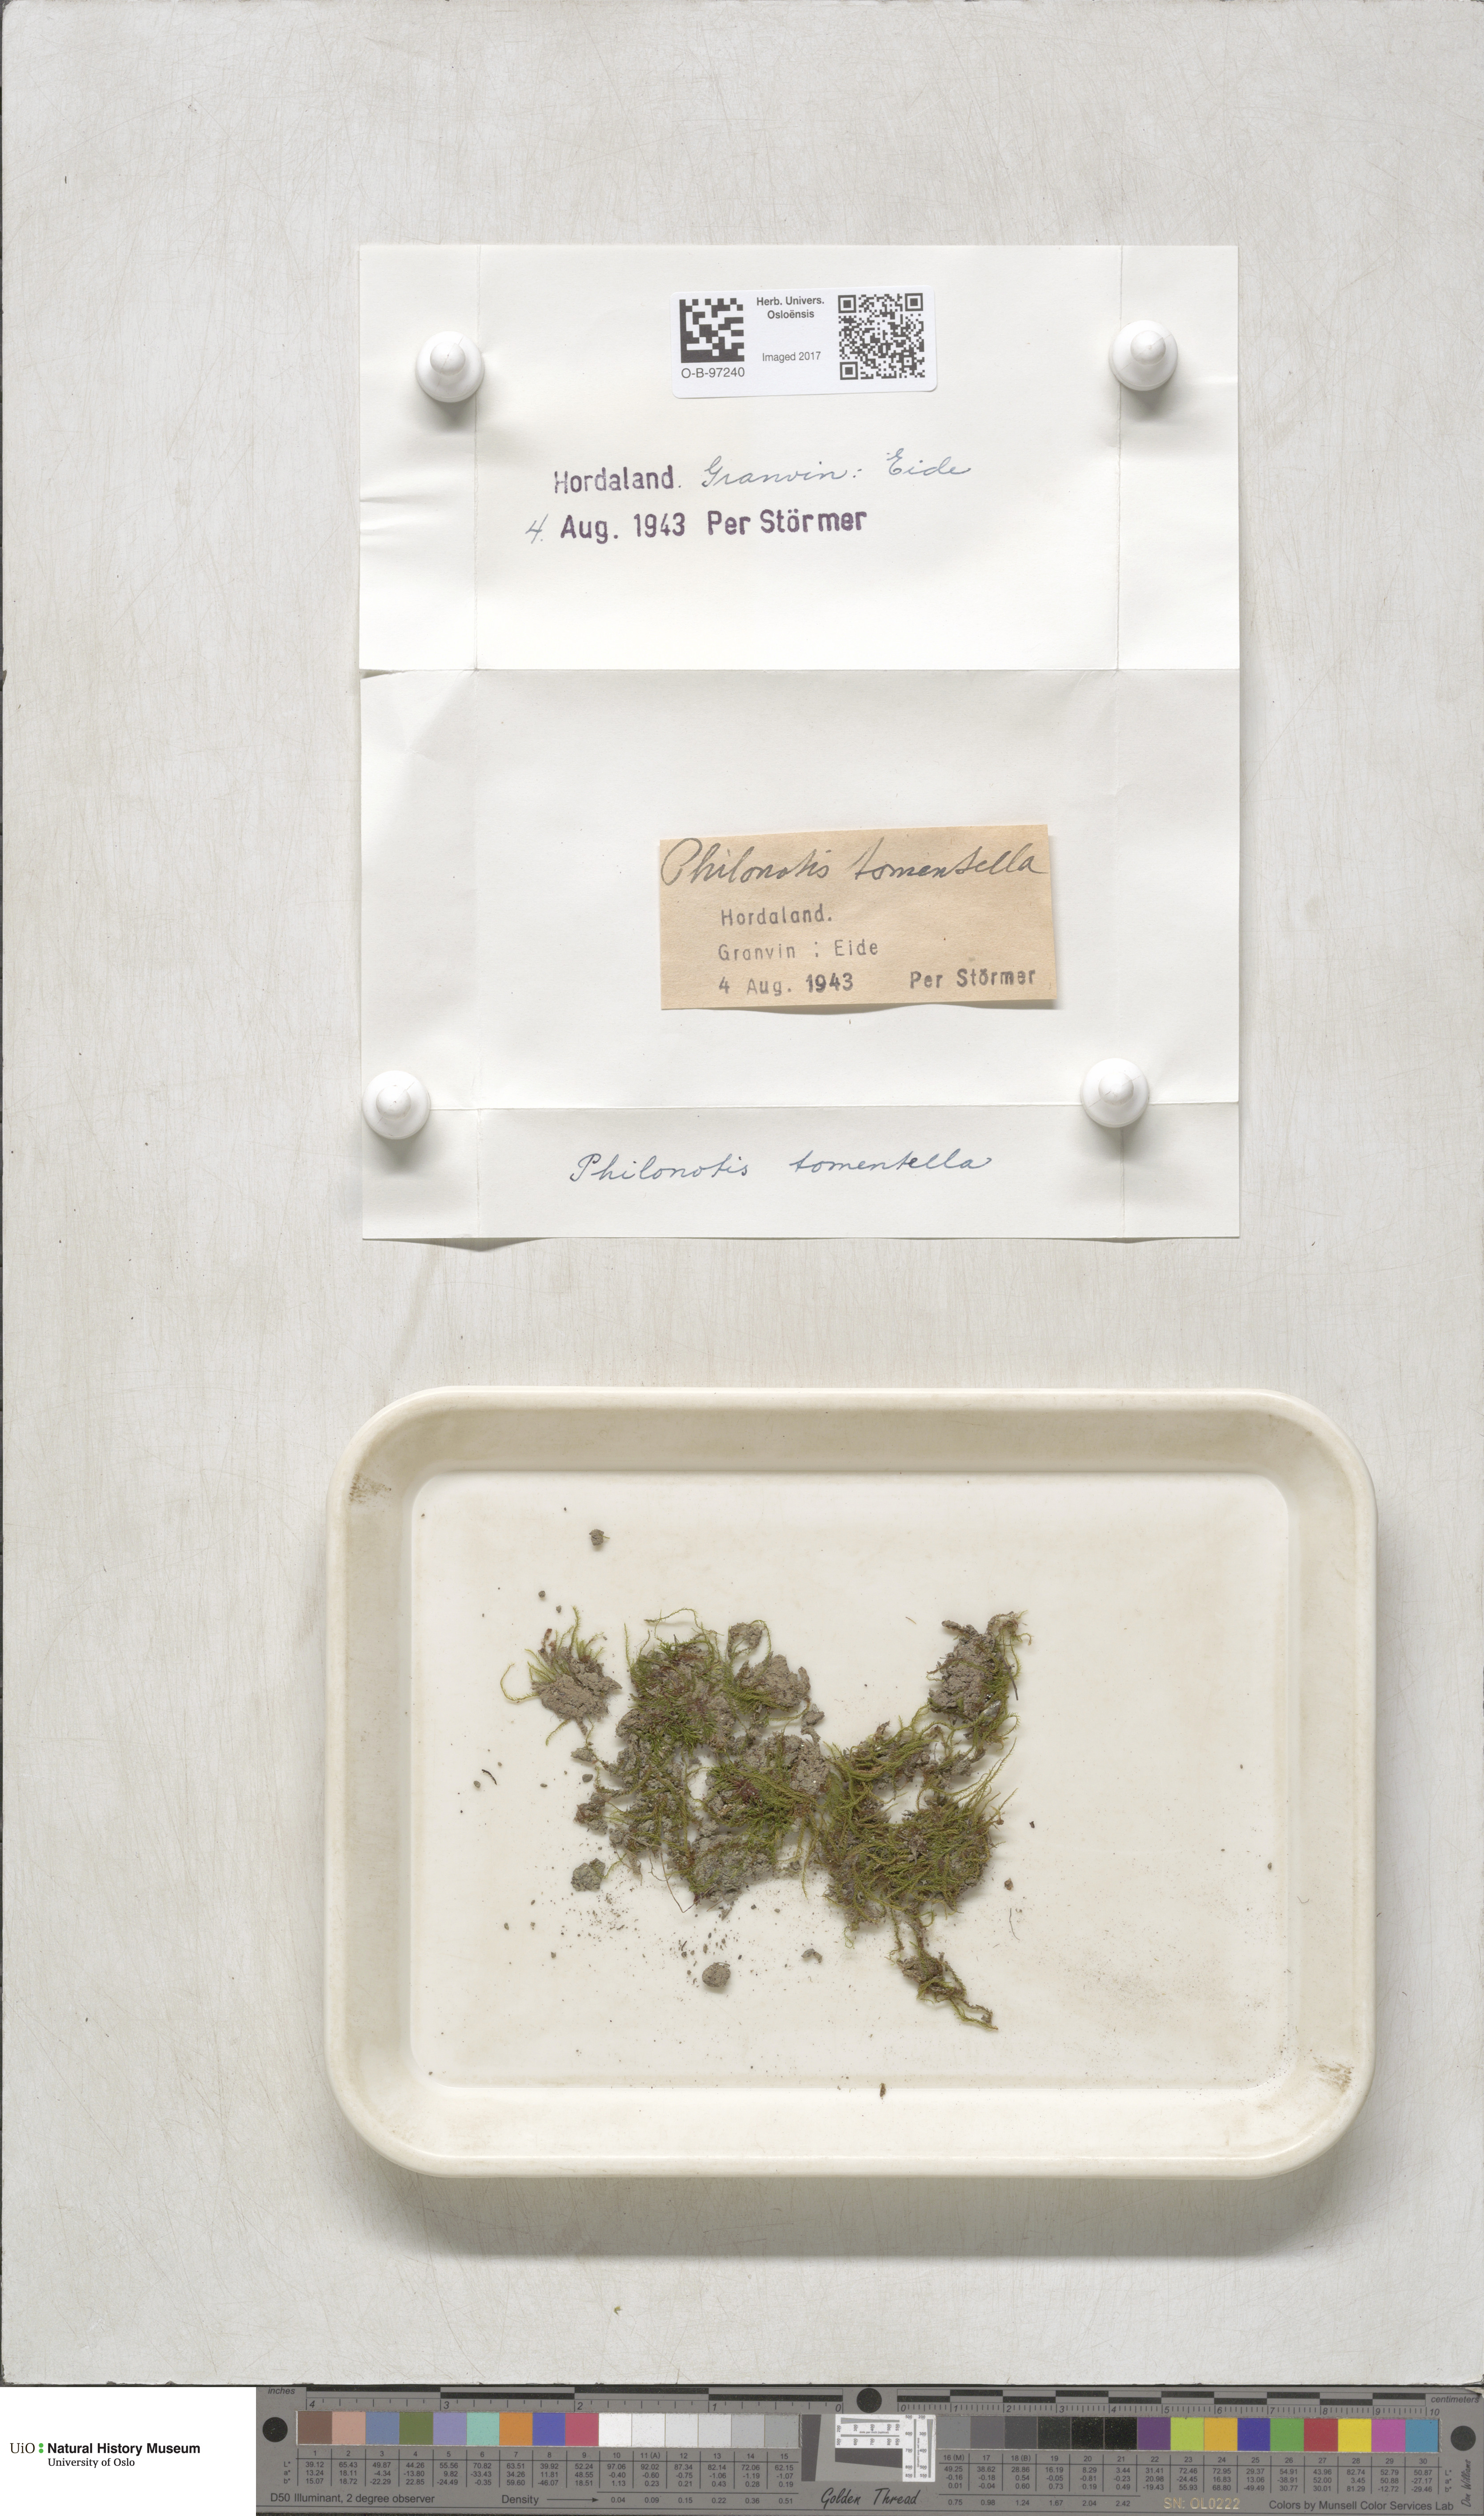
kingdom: Plantae
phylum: Bryophyta
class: Bryopsida
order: Bartramiales
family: Bartramiaceae
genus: Philonotis
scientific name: Philonotis tomentella
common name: Woolly apple moss
